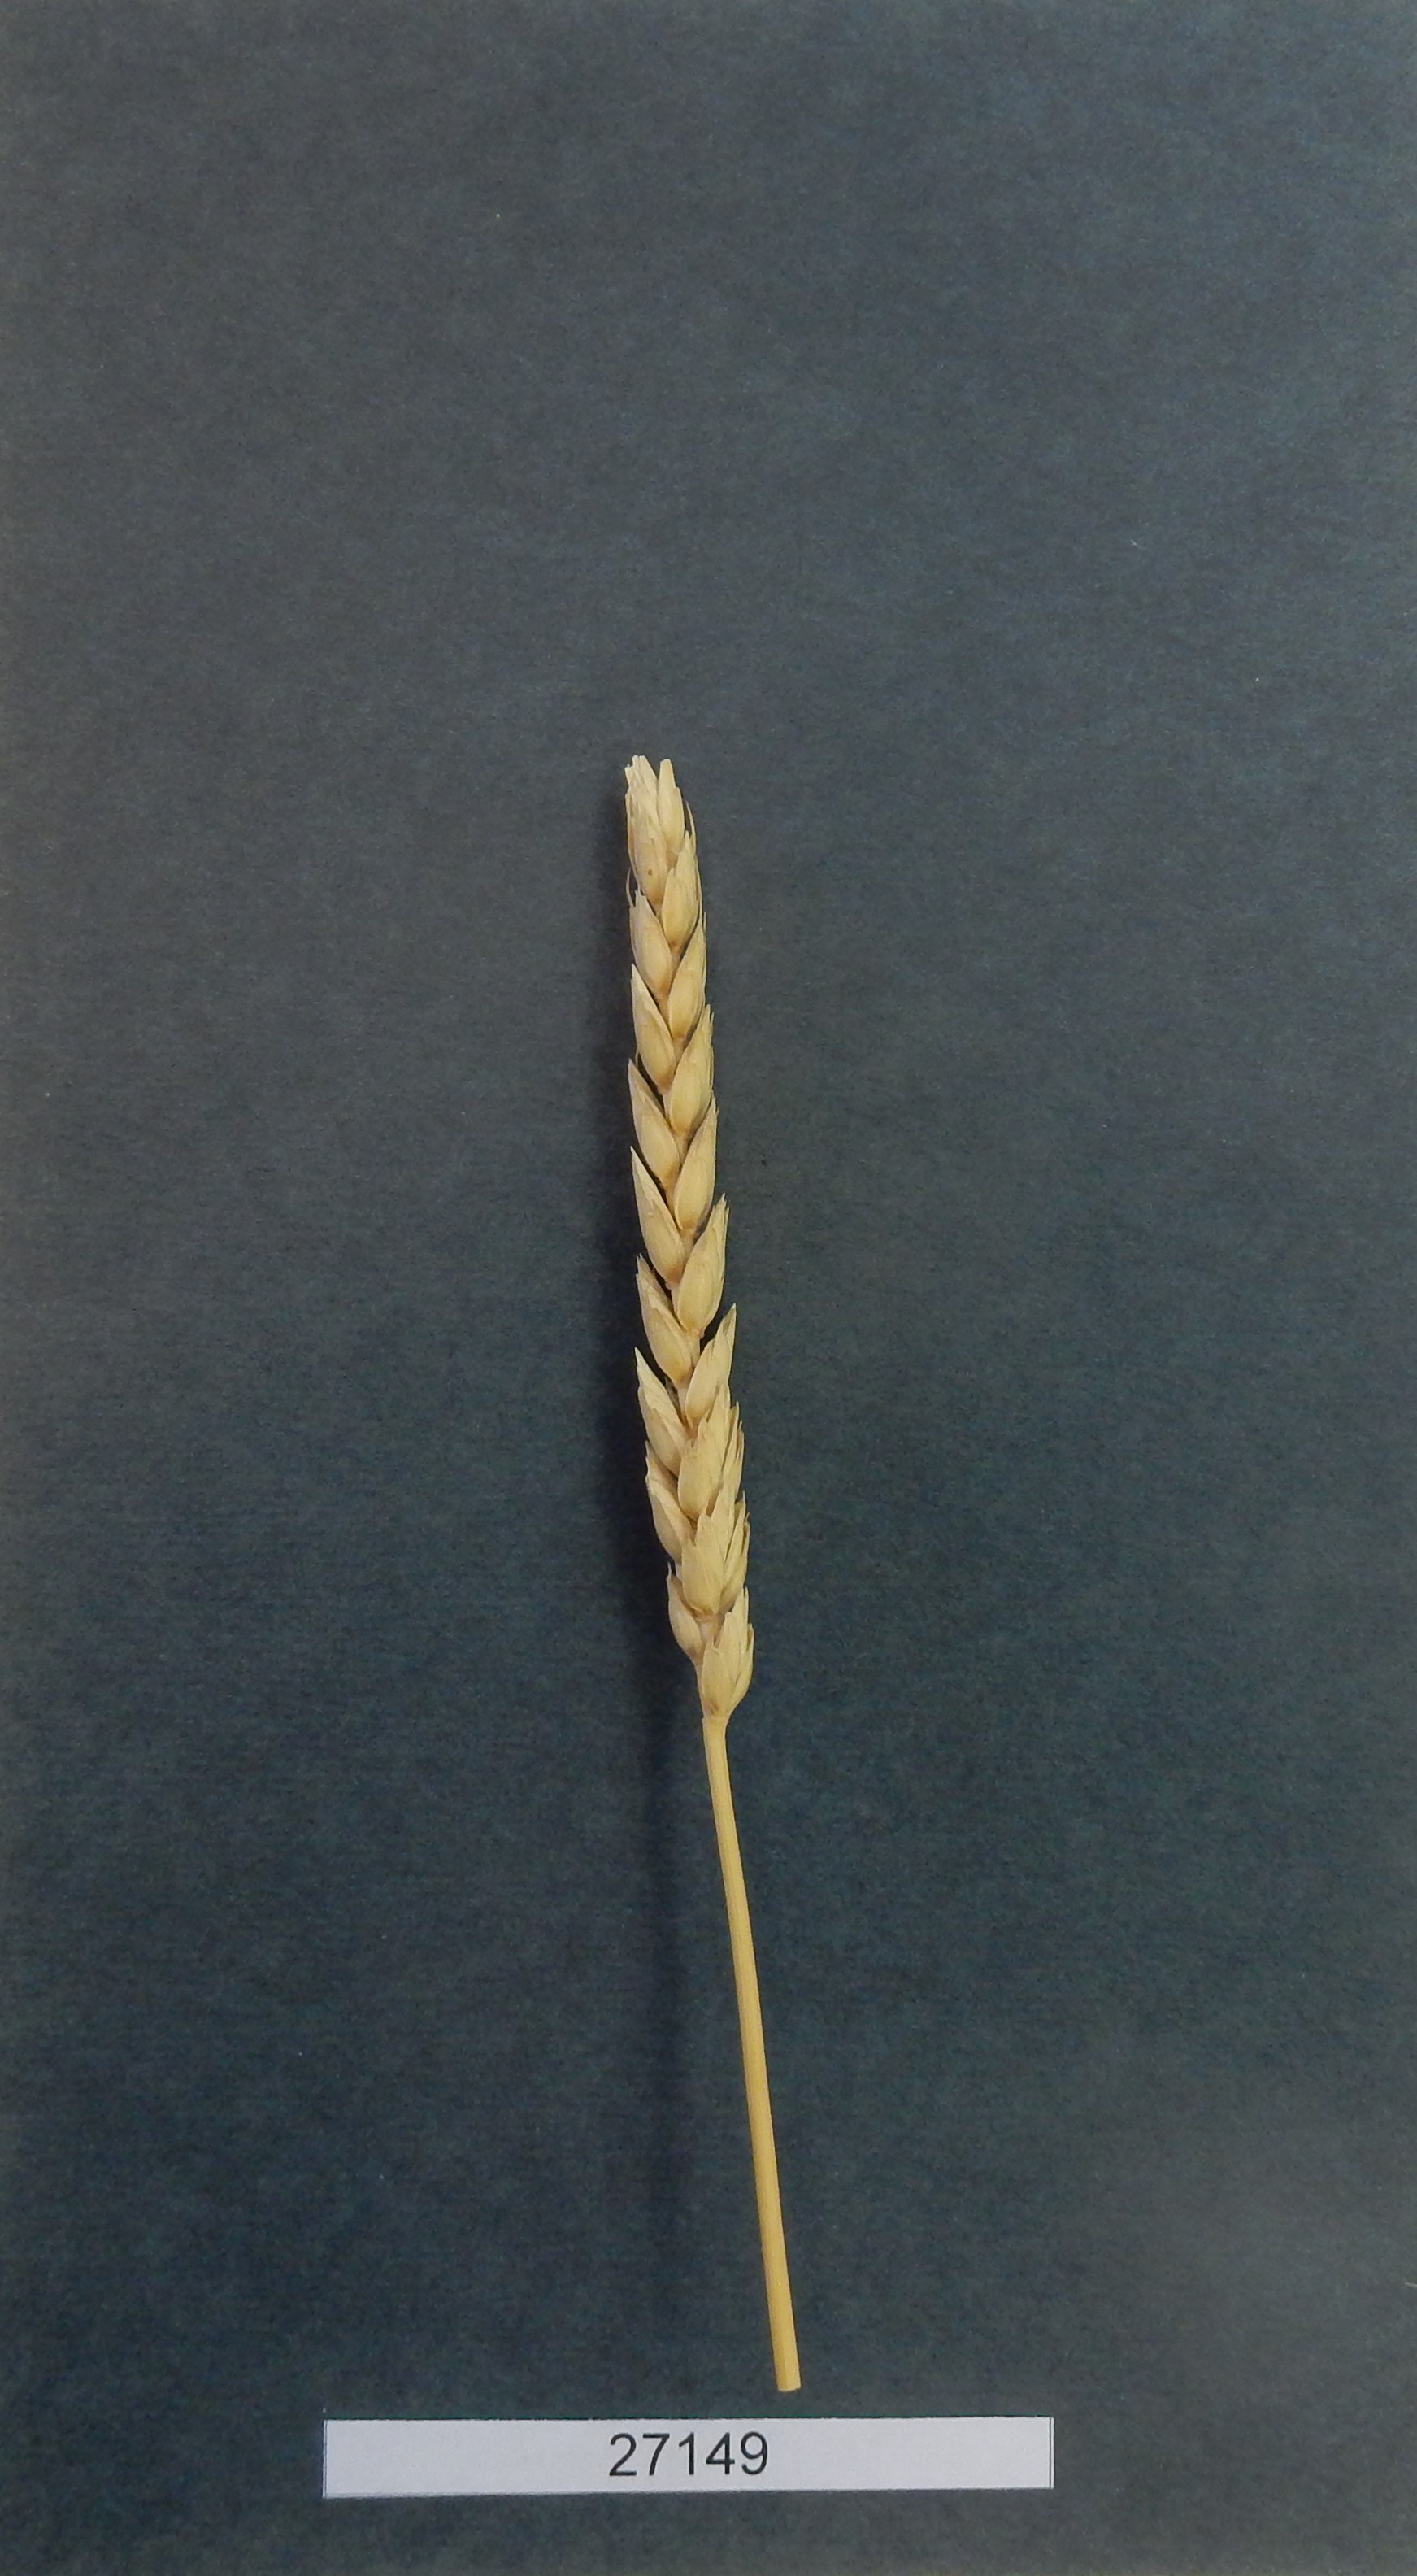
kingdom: Plantae
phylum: Tracheophyta
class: Liliopsida
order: Poales
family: Poaceae
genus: Triticum
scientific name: Triticum aestivum
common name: Common wheat
